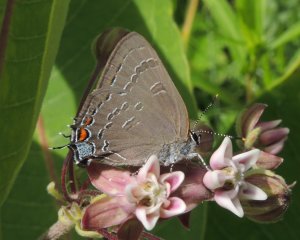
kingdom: Animalia
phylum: Arthropoda
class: Insecta
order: Lepidoptera
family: Lycaenidae
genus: Satyrium
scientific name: Satyrium calanus
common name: Banded Hairstreak
